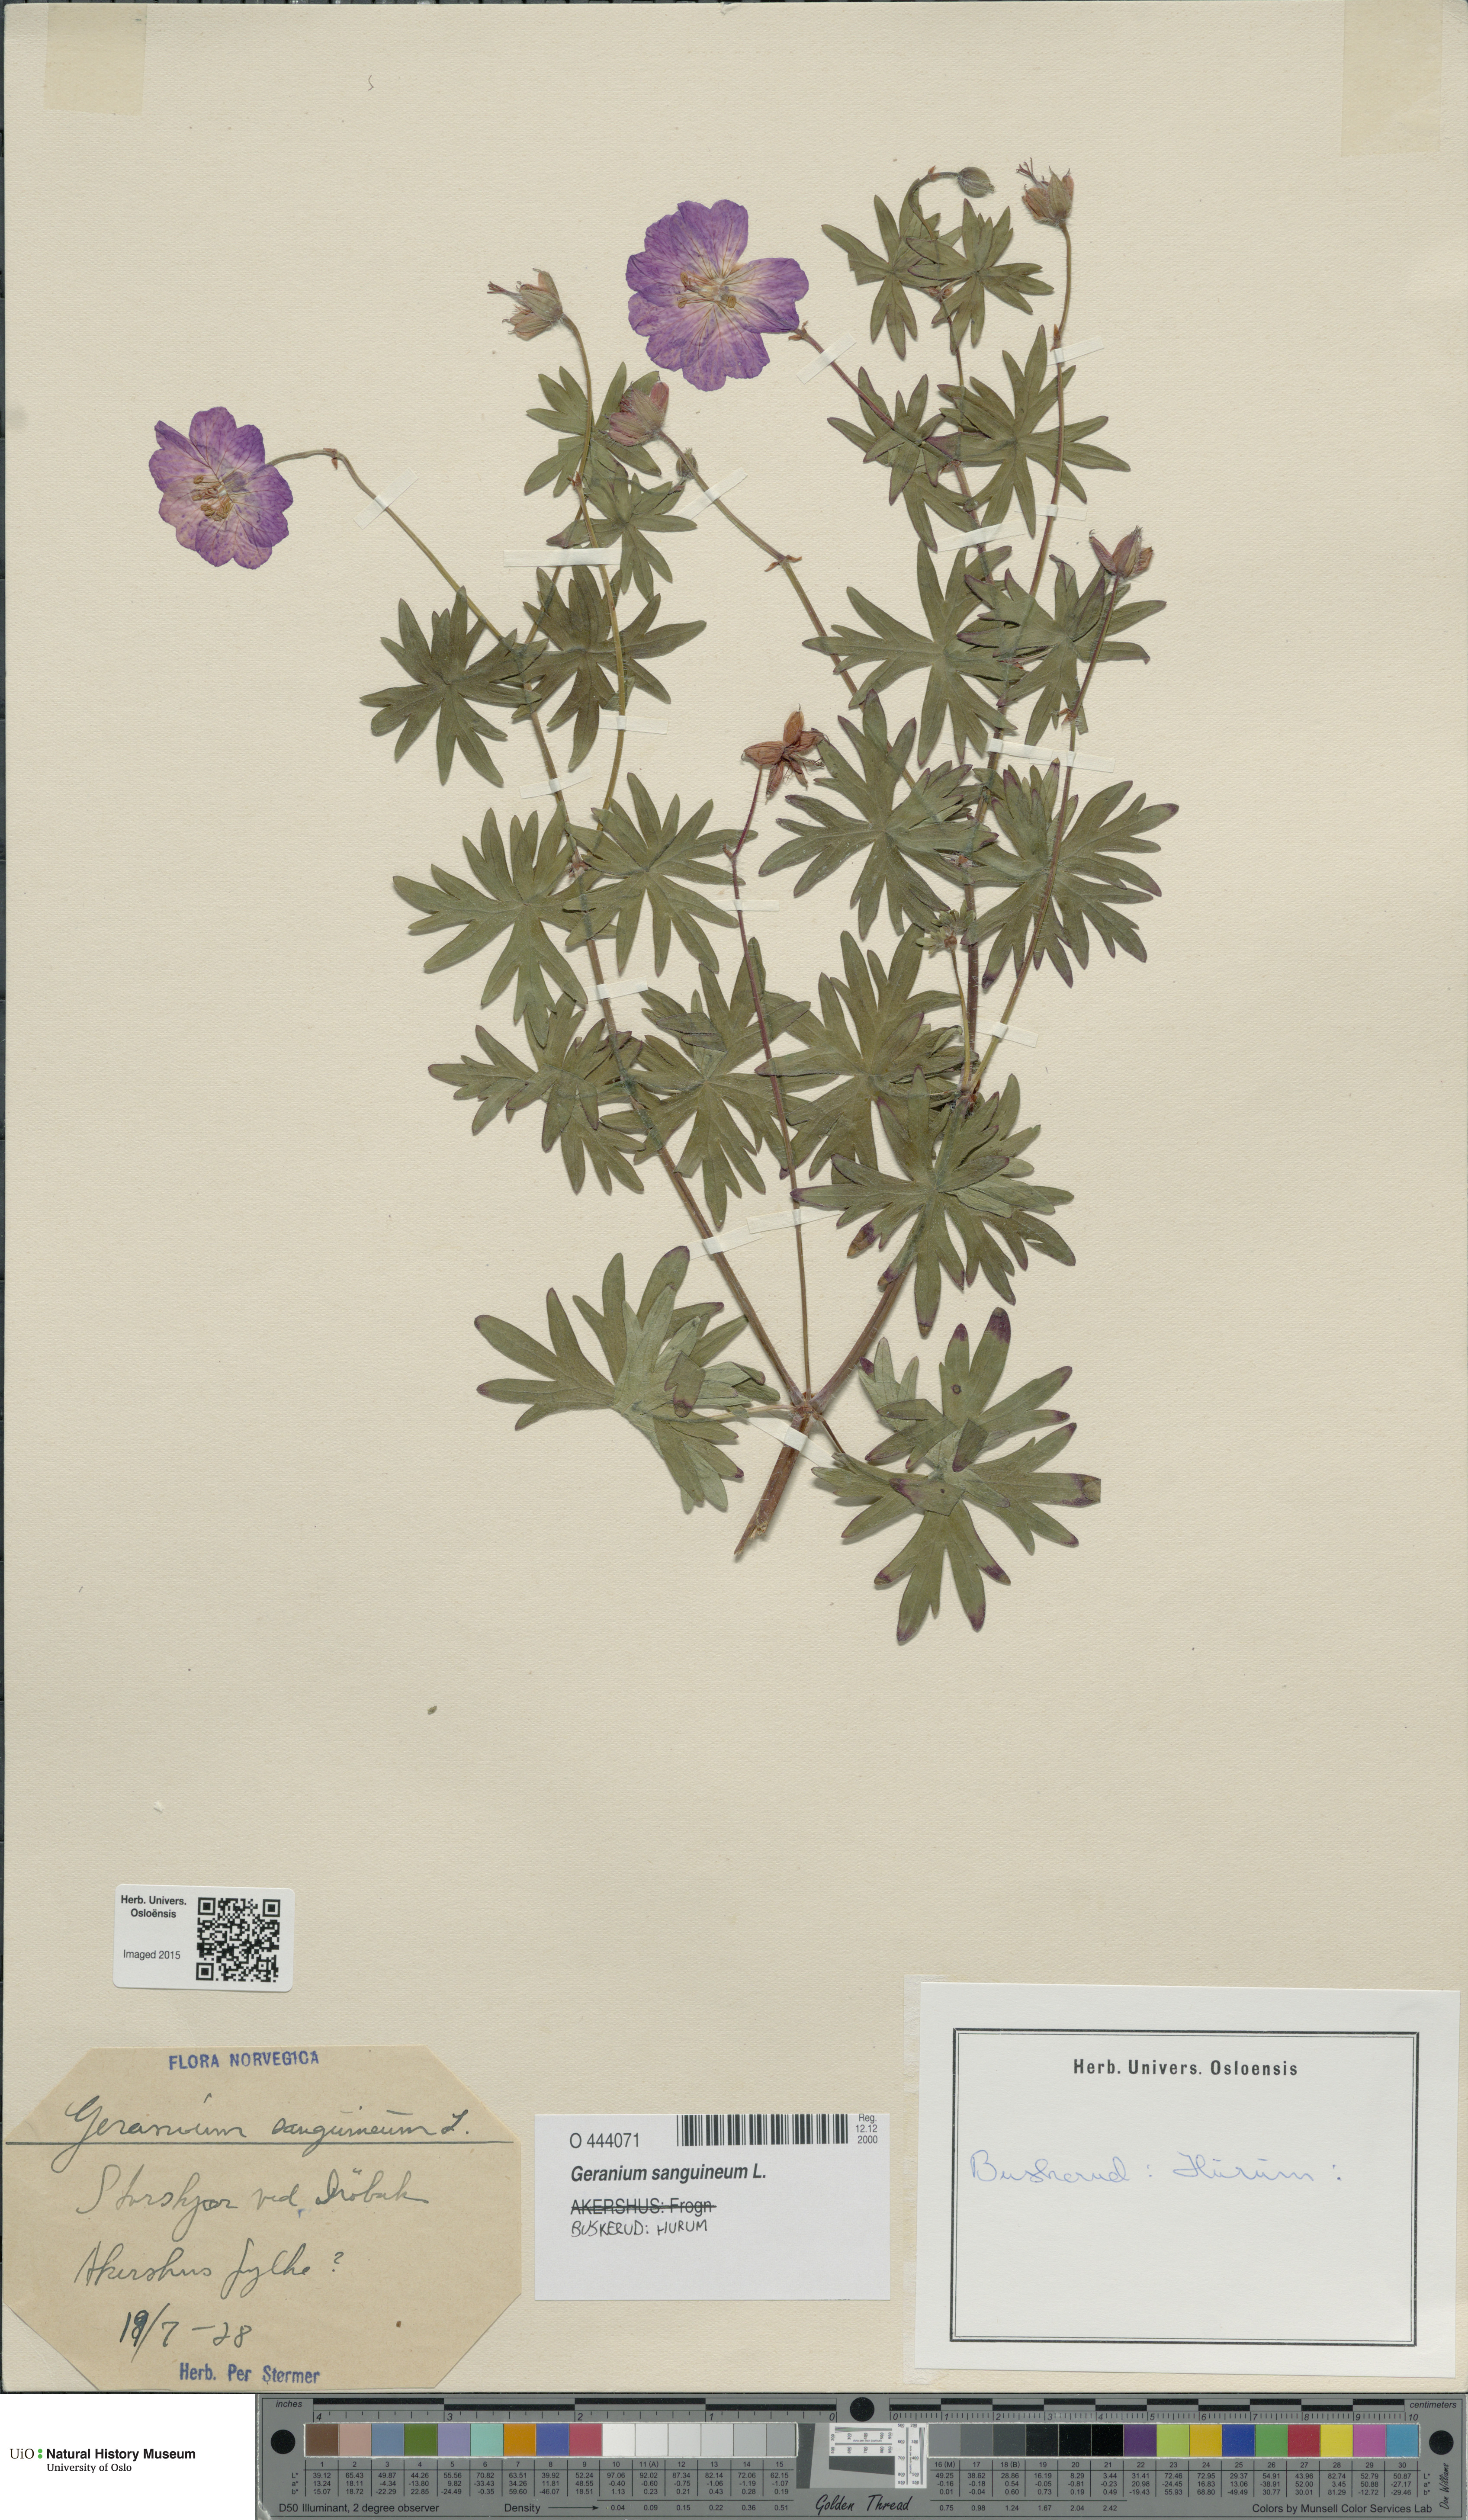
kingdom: Plantae
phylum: Tracheophyta
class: Magnoliopsida
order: Geraniales
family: Geraniaceae
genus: Geranium
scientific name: Geranium sanguineum
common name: Bloody crane's-bill
